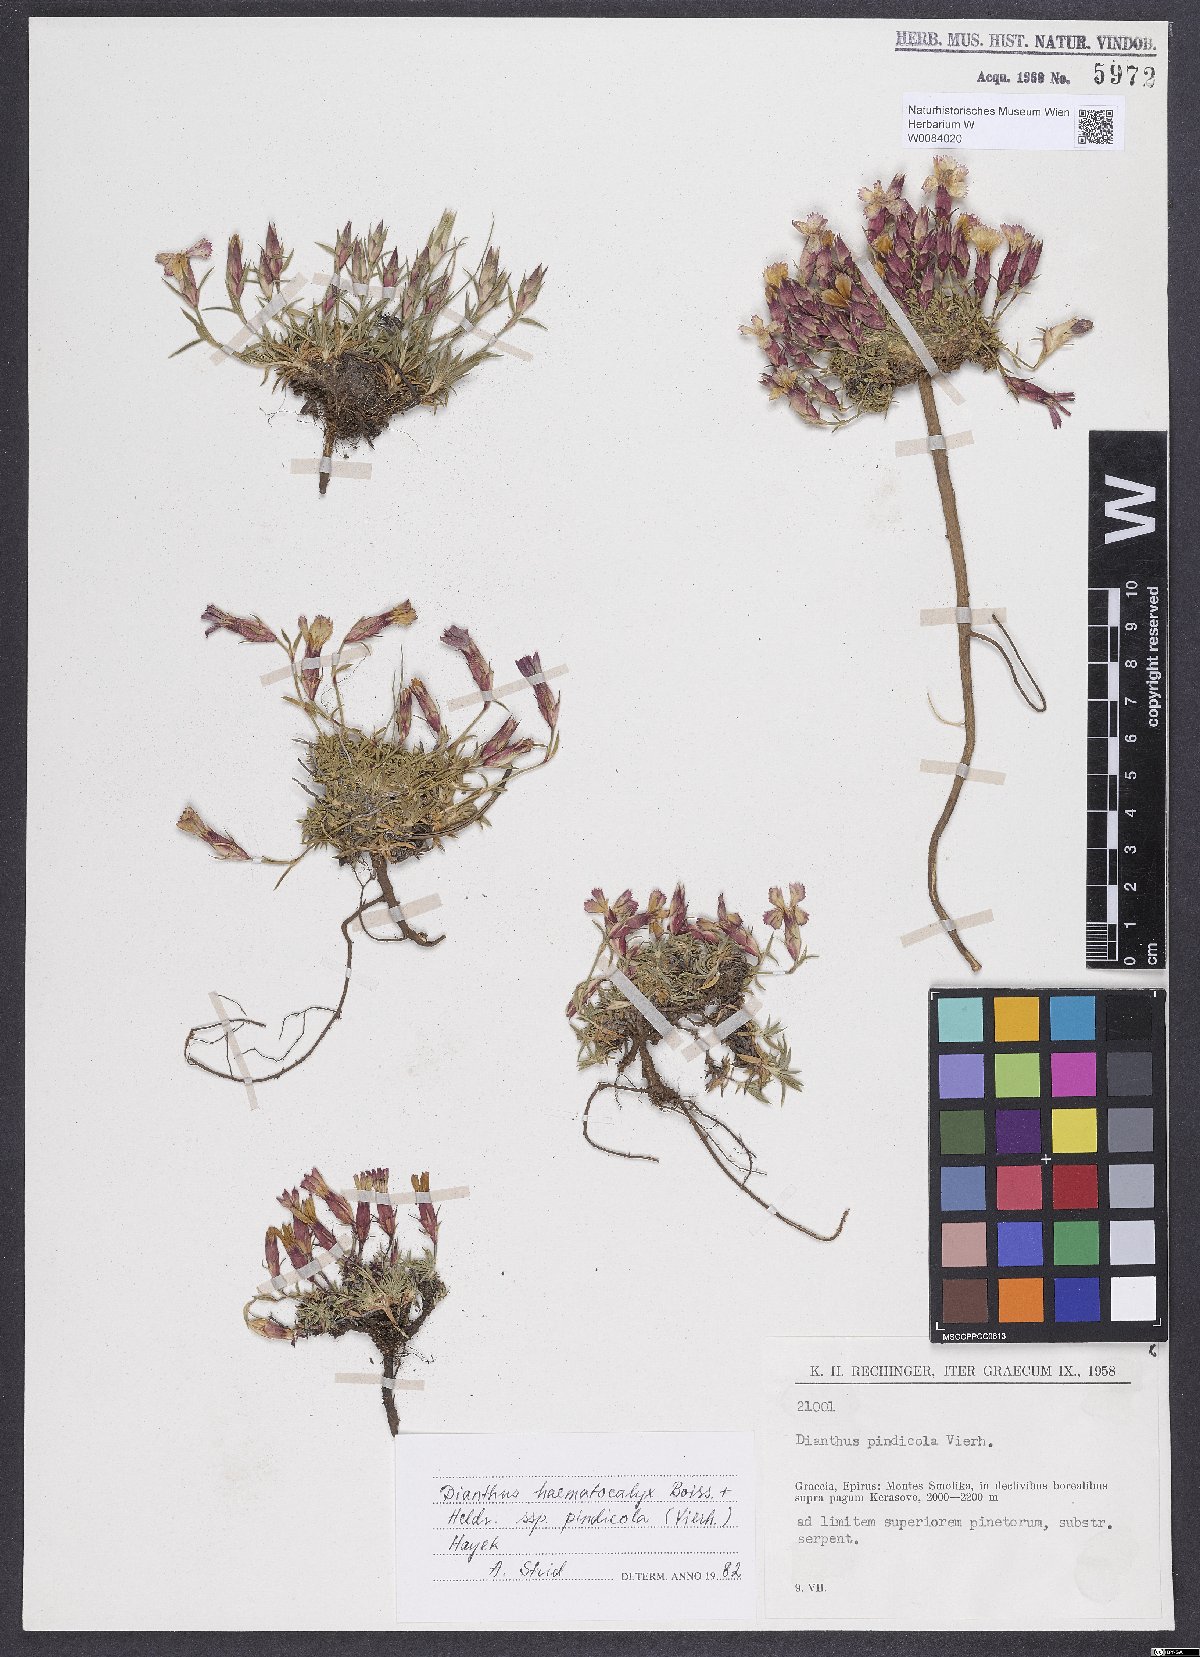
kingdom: Plantae
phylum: Tracheophyta
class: Magnoliopsida
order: Caryophyllales
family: Caryophyllaceae
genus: Dianthus
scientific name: Dianthus haematocalyx
